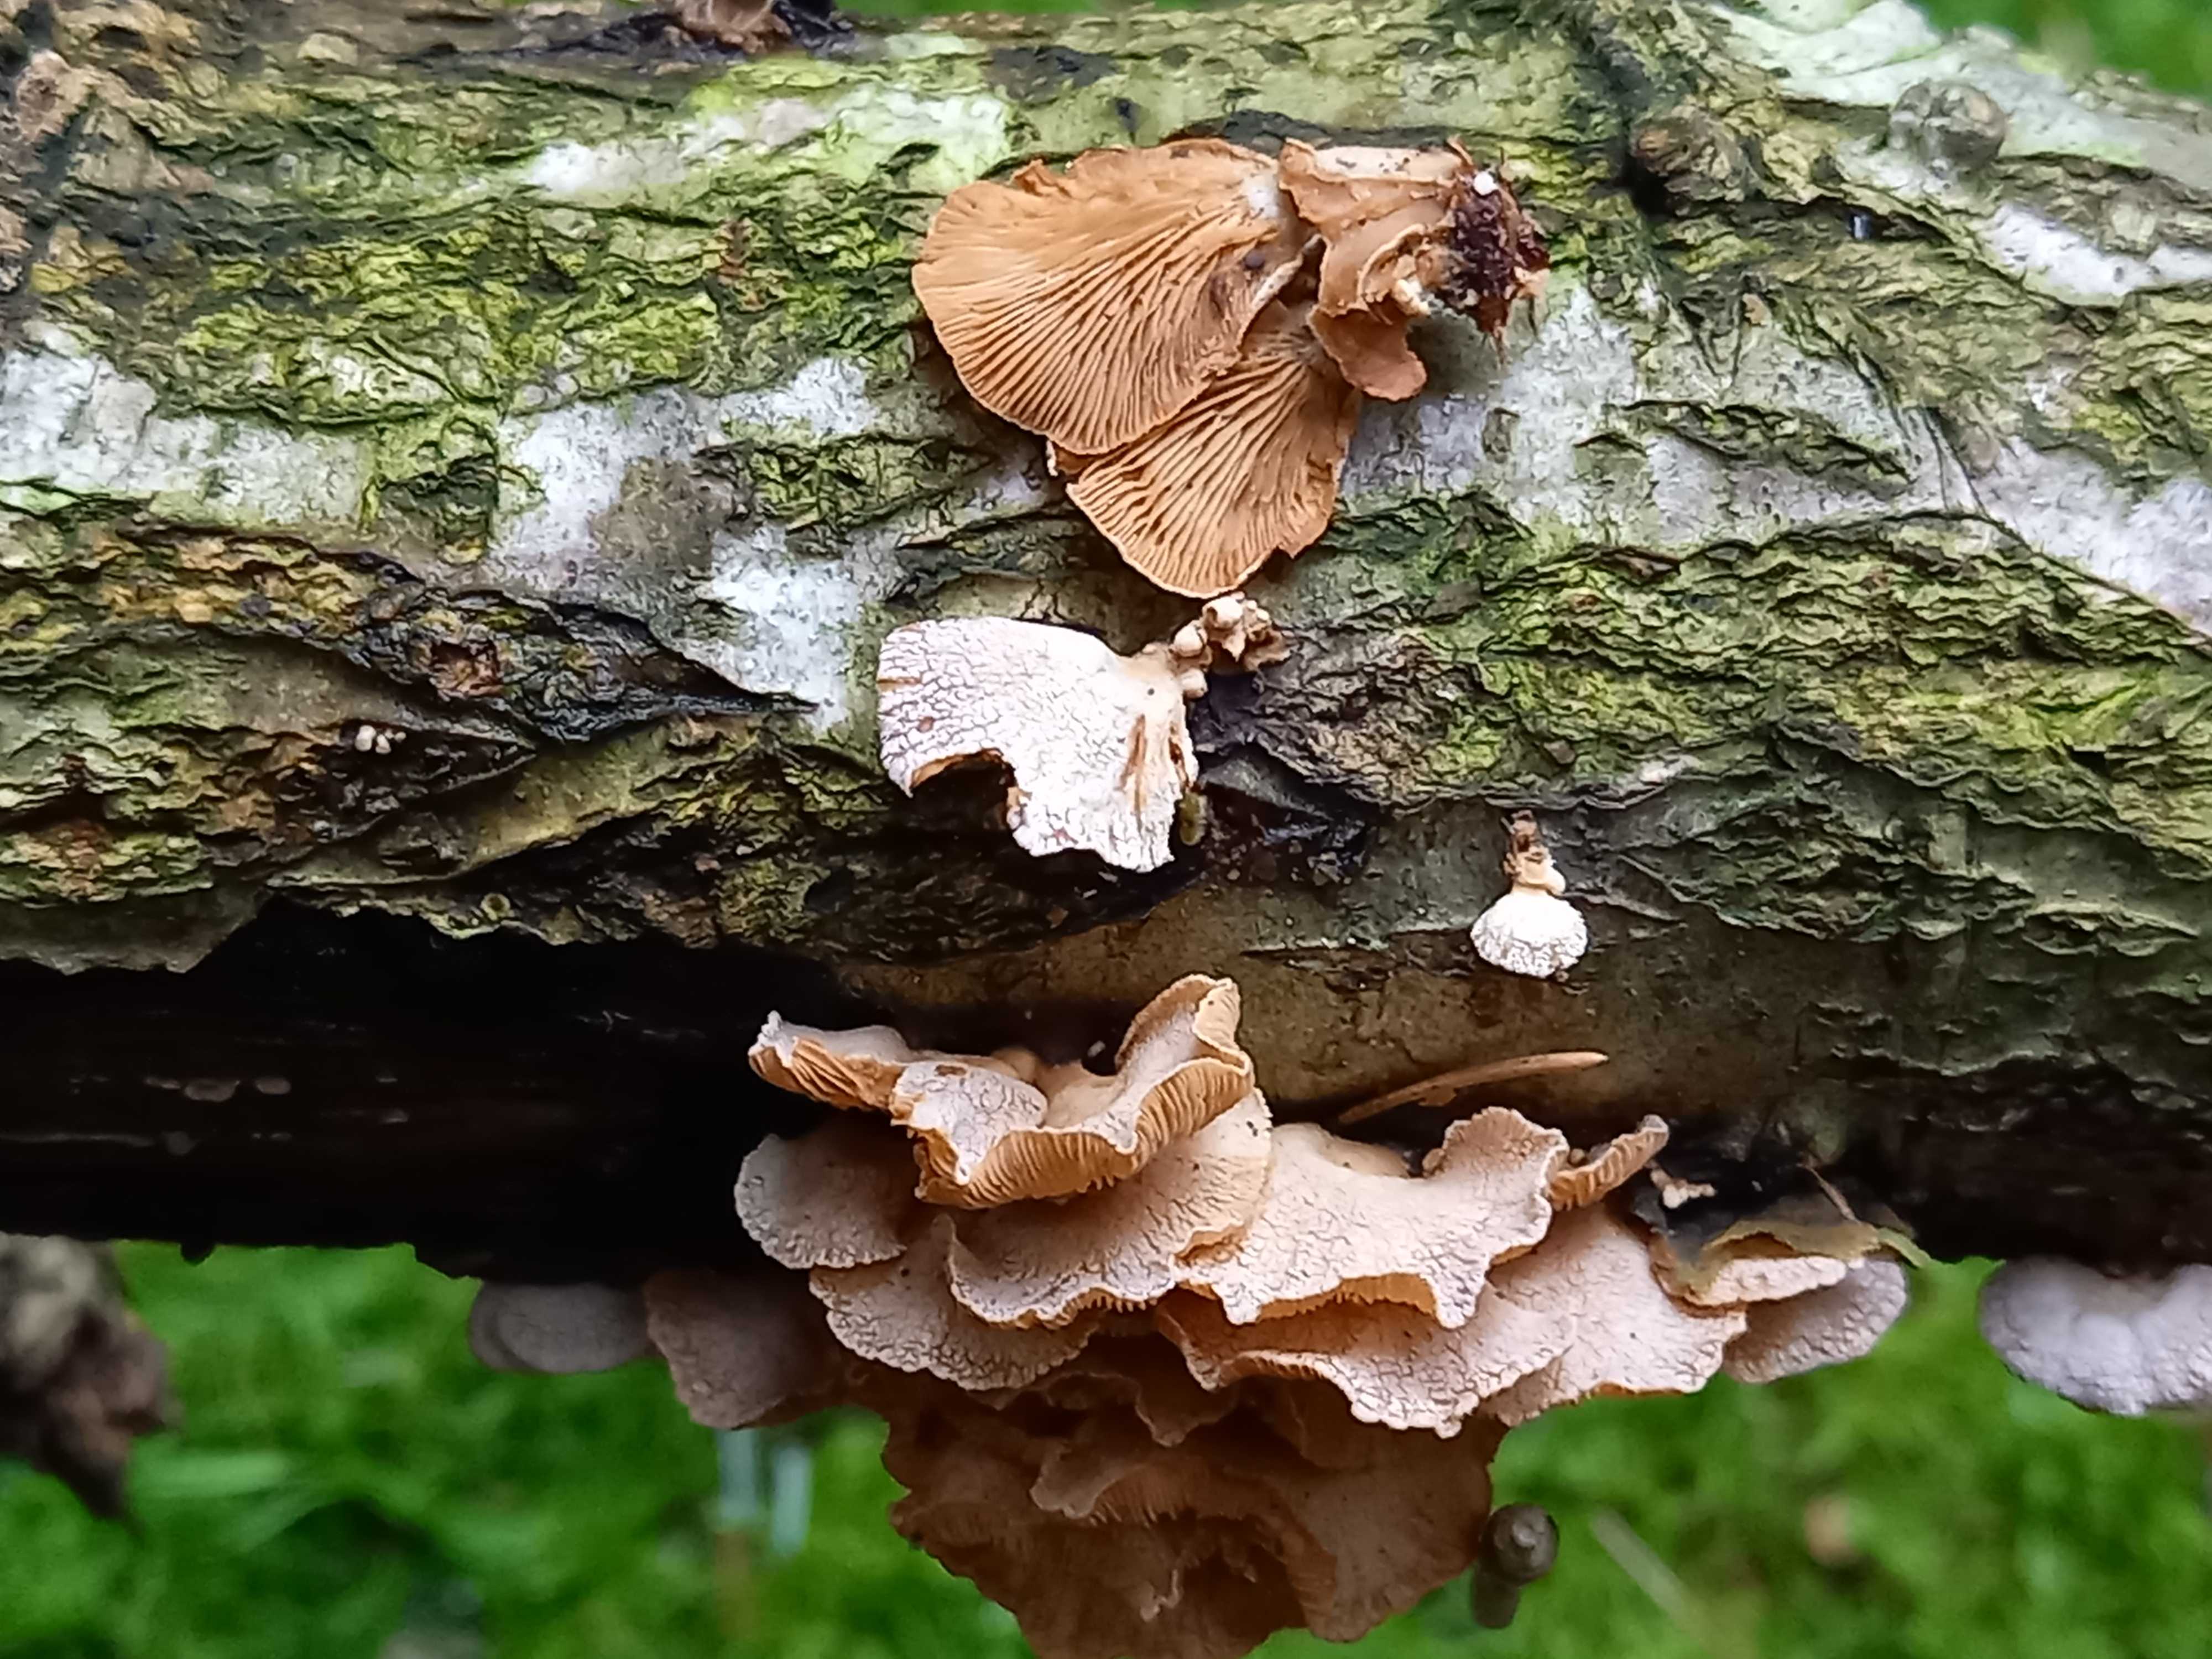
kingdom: Fungi
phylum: Basidiomycota
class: Agaricomycetes
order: Agaricales
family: Mycenaceae
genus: Panellus
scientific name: Panellus stipticus
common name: kliddet epaulethat
